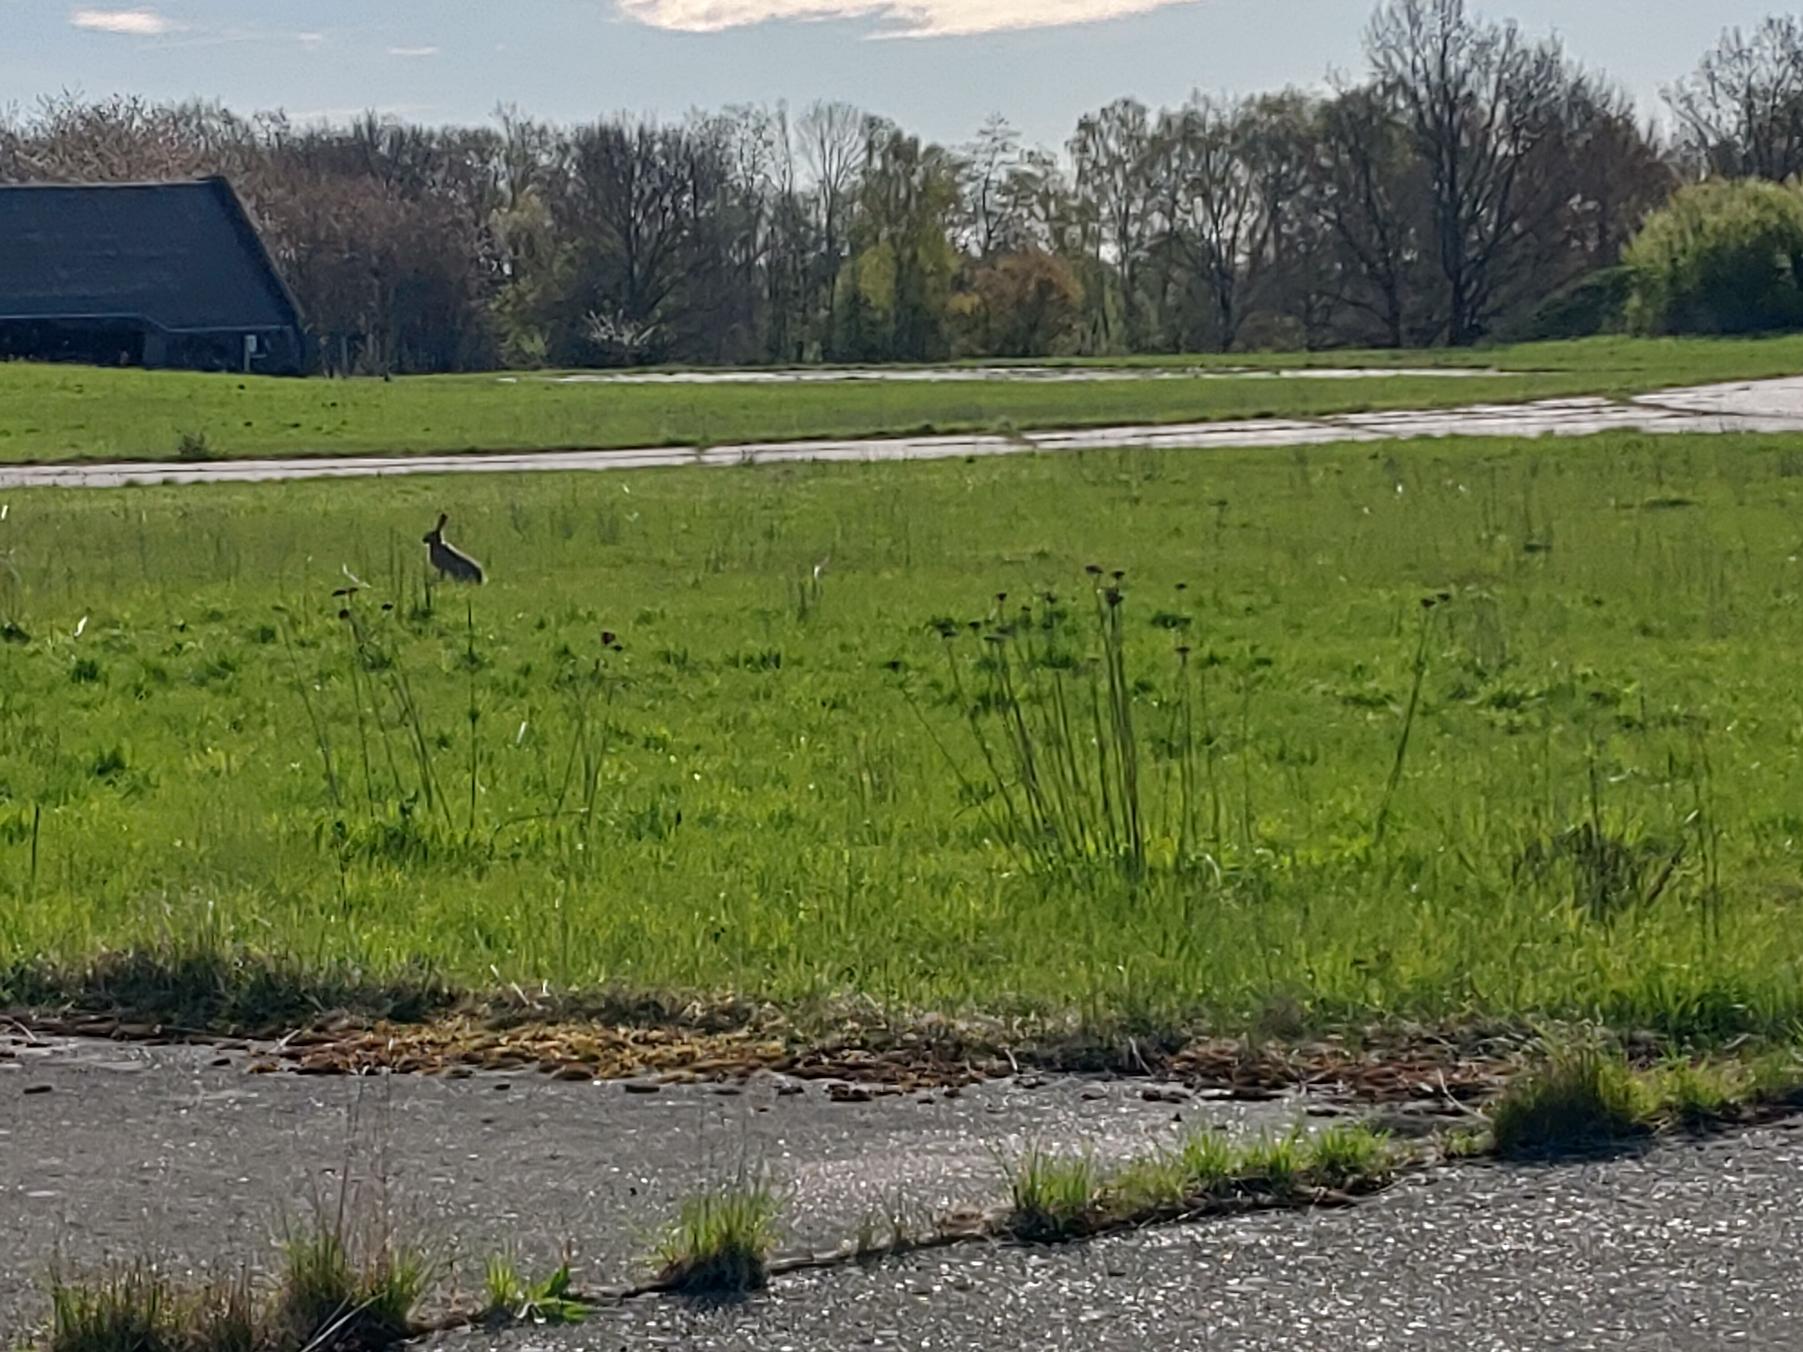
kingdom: Animalia
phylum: Chordata
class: Mammalia
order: Lagomorpha
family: Leporidae
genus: Lepus
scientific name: Lepus europaeus
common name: Hare
